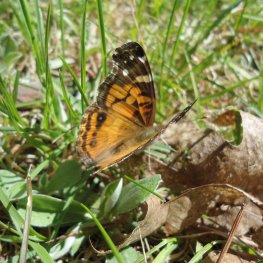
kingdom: Animalia
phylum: Arthropoda
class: Insecta
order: Lepidoptera
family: Nymphalidae
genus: Vanessa
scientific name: Vanessa virginiensis
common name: American Lady
